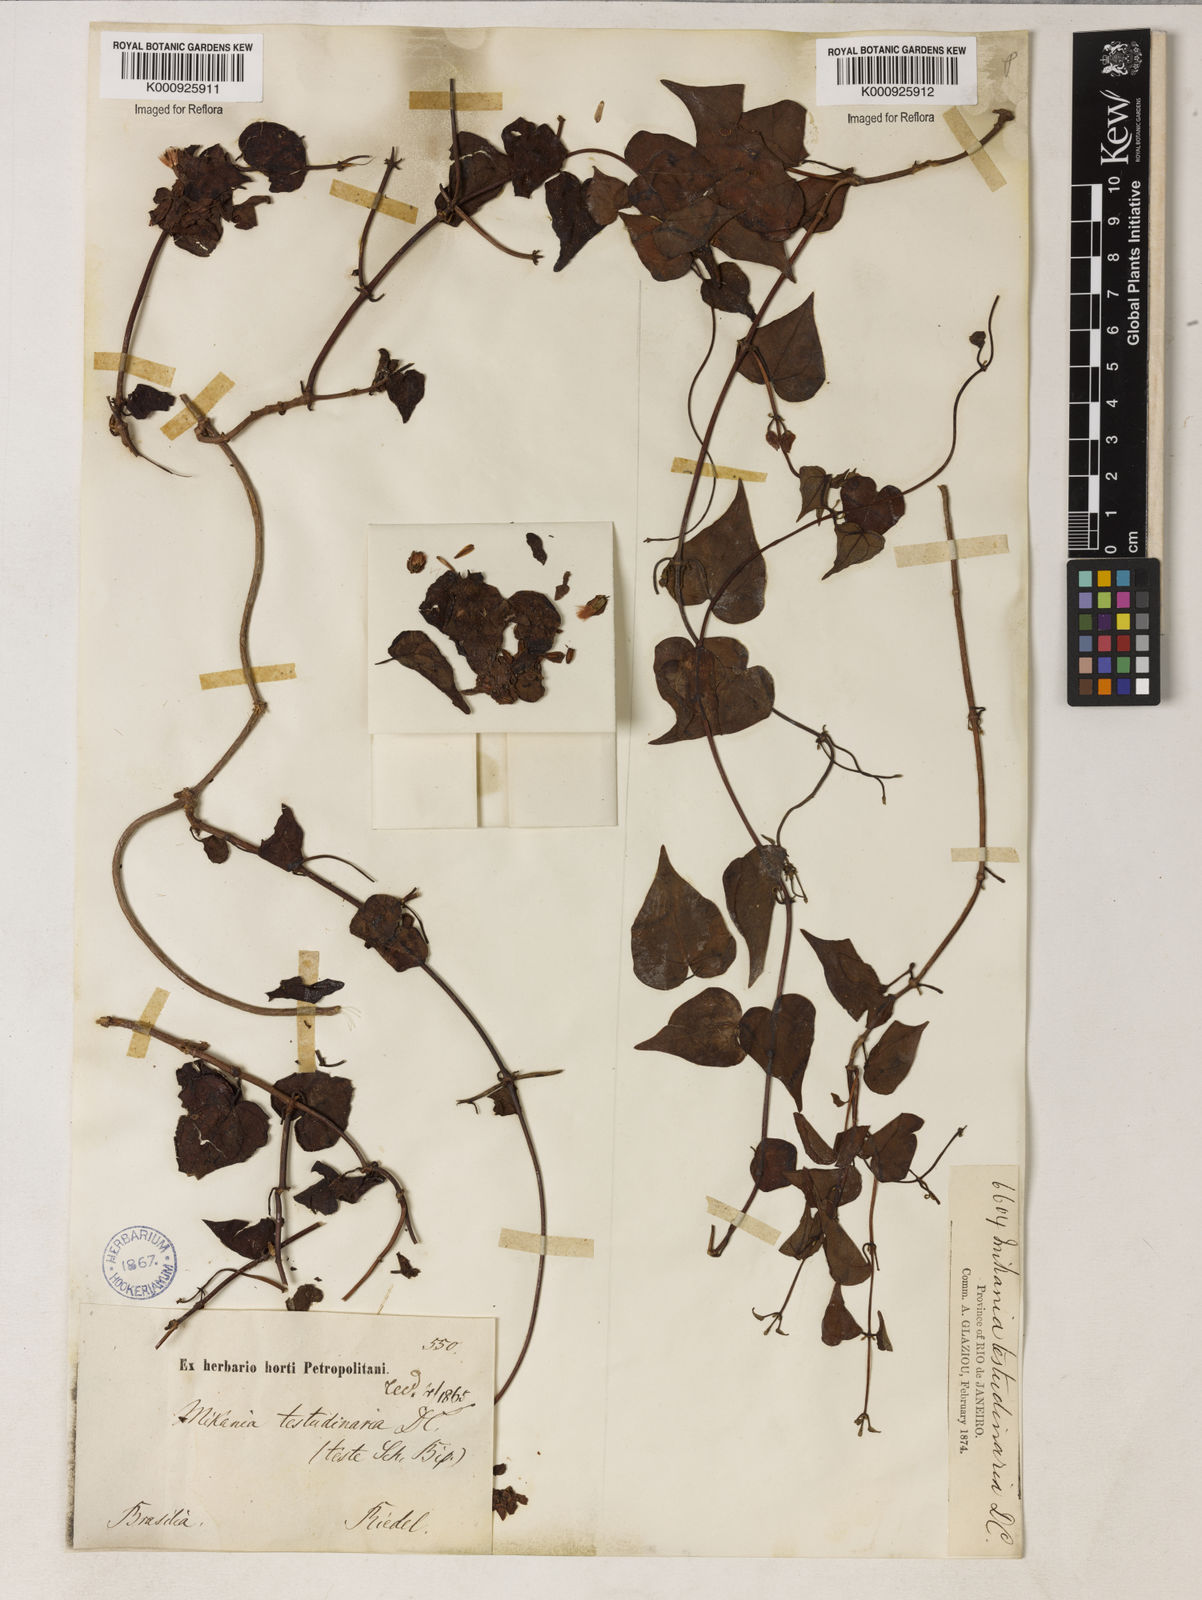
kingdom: Plantae
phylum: Tracheophyta
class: Magnoliopsida
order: Asterales
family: Asteraceae
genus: Mikania
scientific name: Mikania testudinaria
